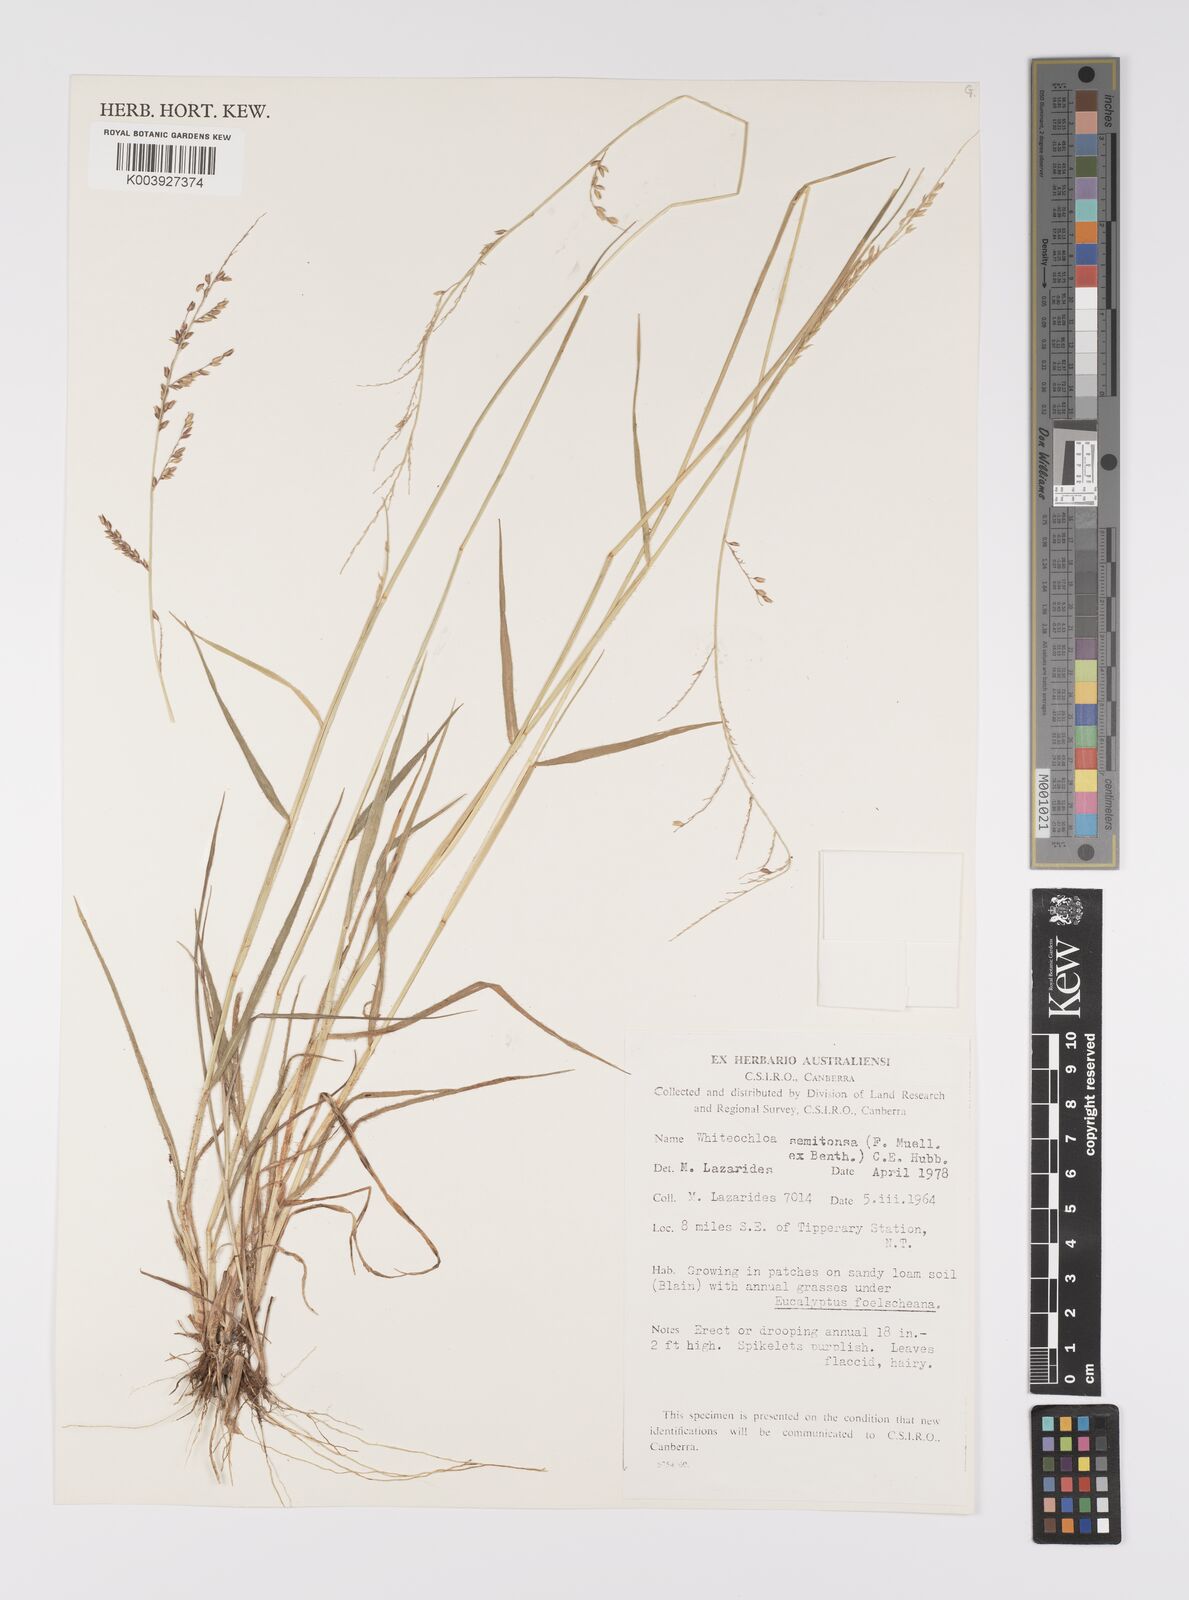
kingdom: Plantae
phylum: Tracheophyta
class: Liliopsida
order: Poales
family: Poaceae
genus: Whiteochloa
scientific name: Whiteochloa semitonsa
